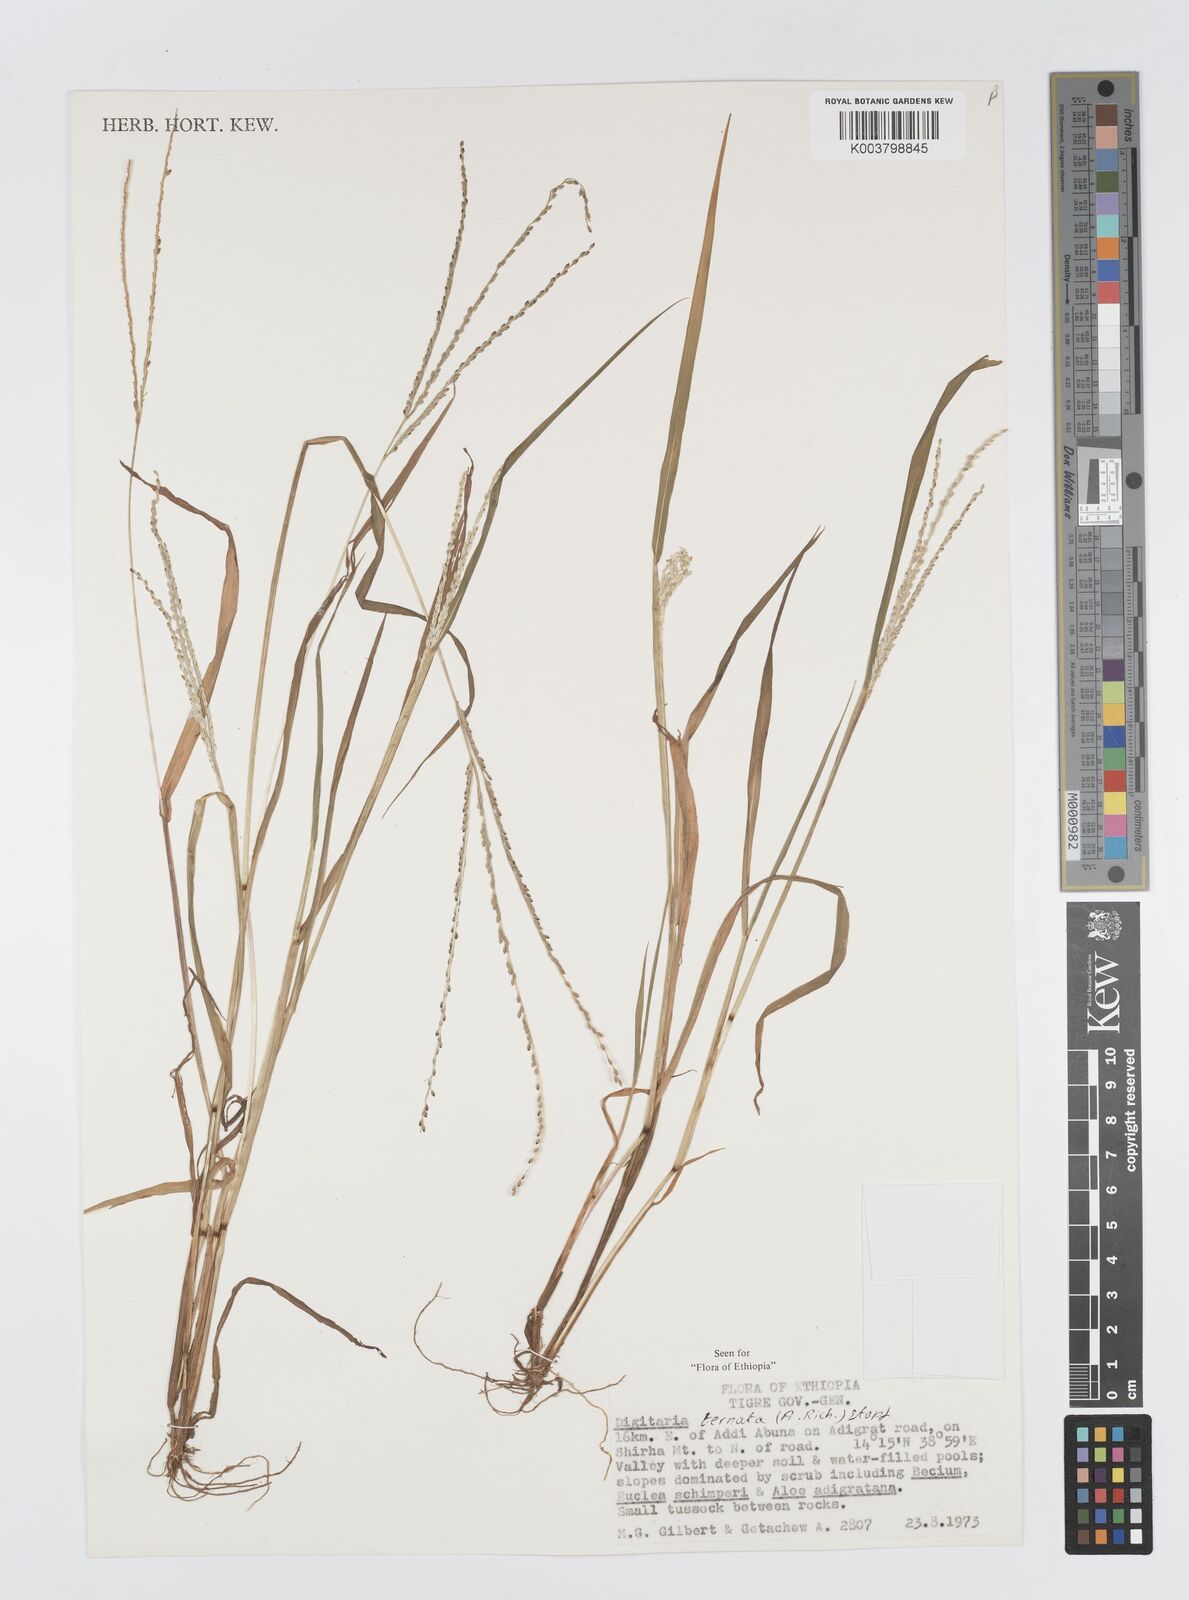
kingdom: Plantae
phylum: Tracheophyta
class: Liliopsida
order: Poales
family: Poaceae
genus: Digitaria
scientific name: Digitaria ternata
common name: Blackseed crabgrass
